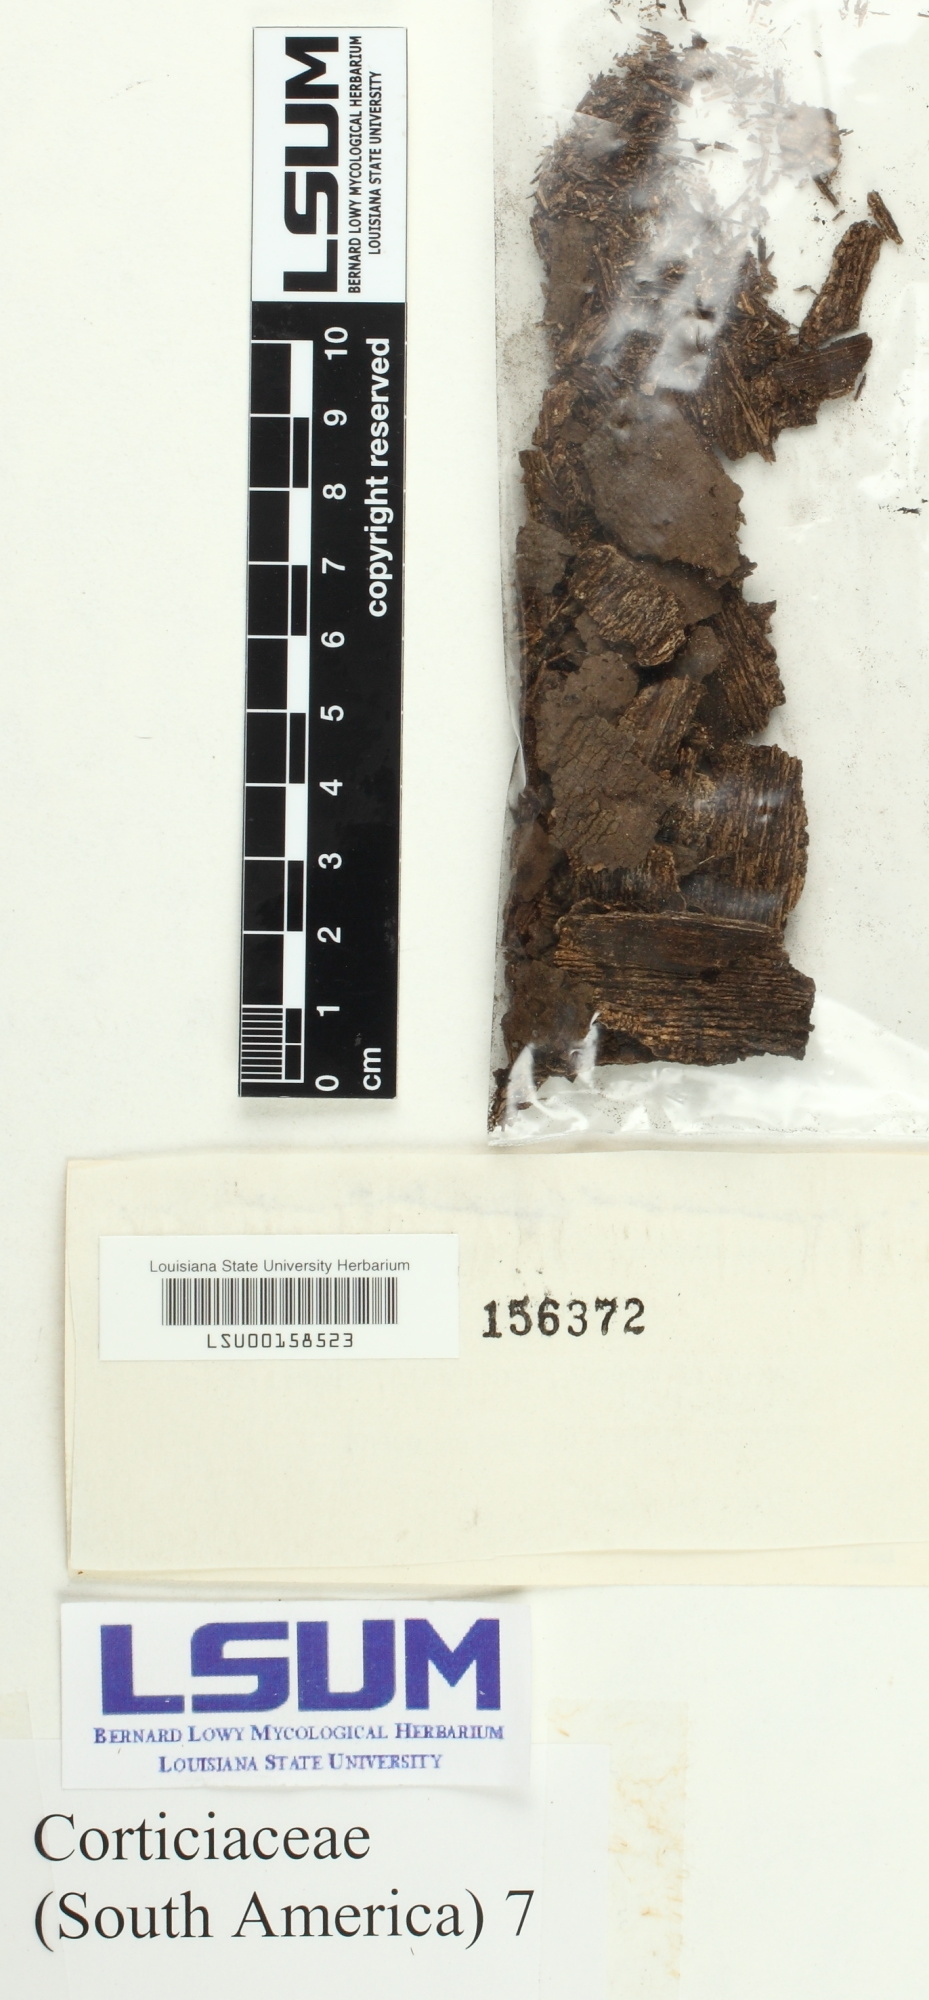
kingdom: Fungi
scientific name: Fungi
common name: Fungi
